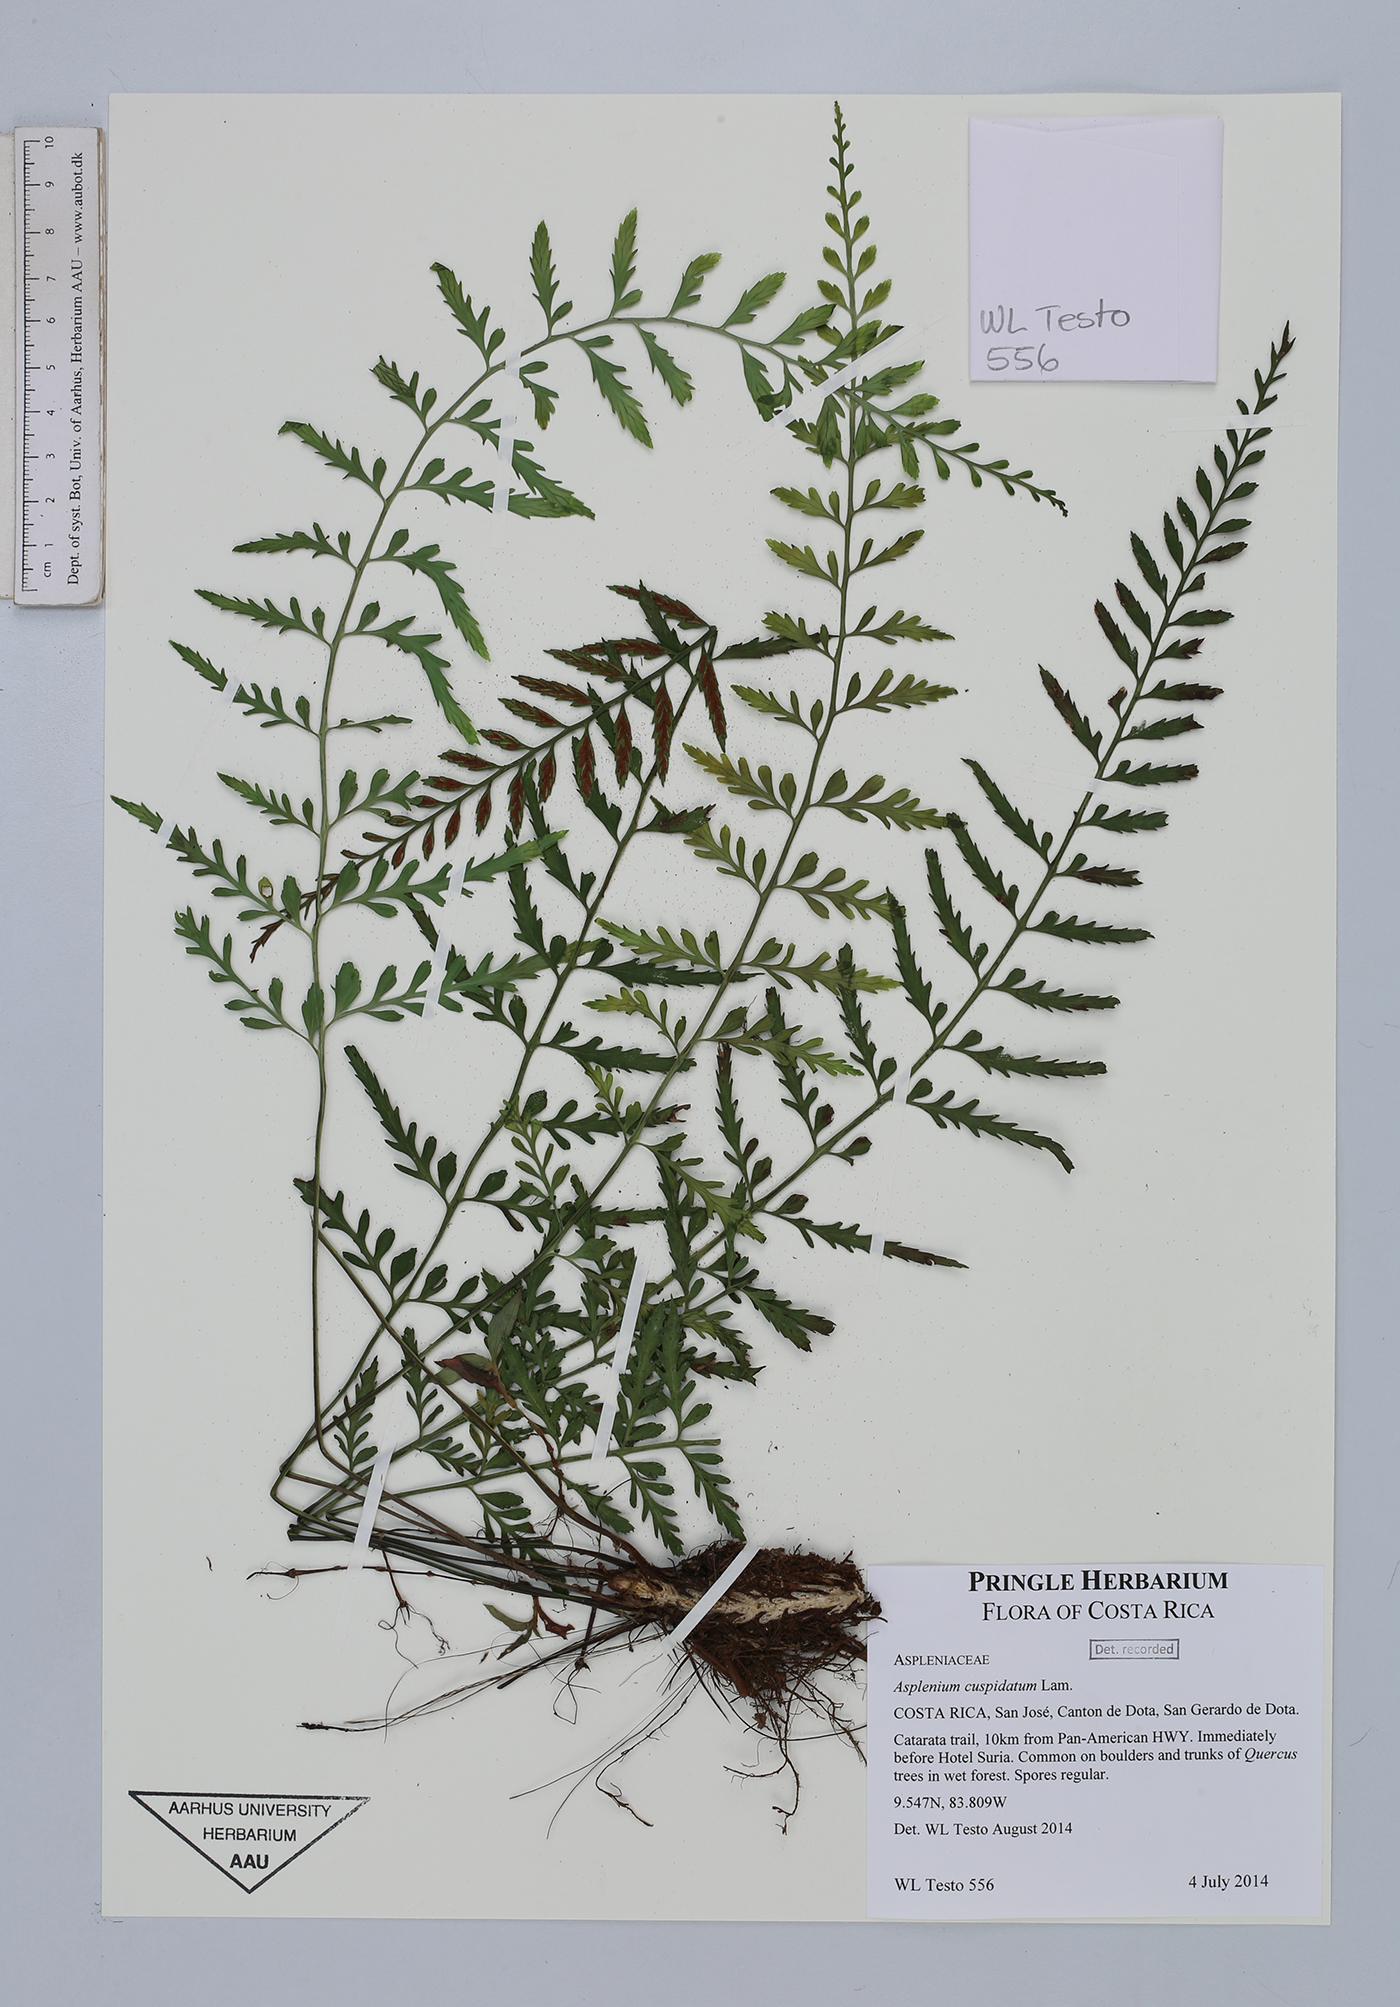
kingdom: Plantae
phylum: Tracheophyta
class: Polypodiopsida
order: Polypodiales
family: Aspleniaceae
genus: Asplenium
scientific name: Asplenium cuspidatum
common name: Eared spleenwort
